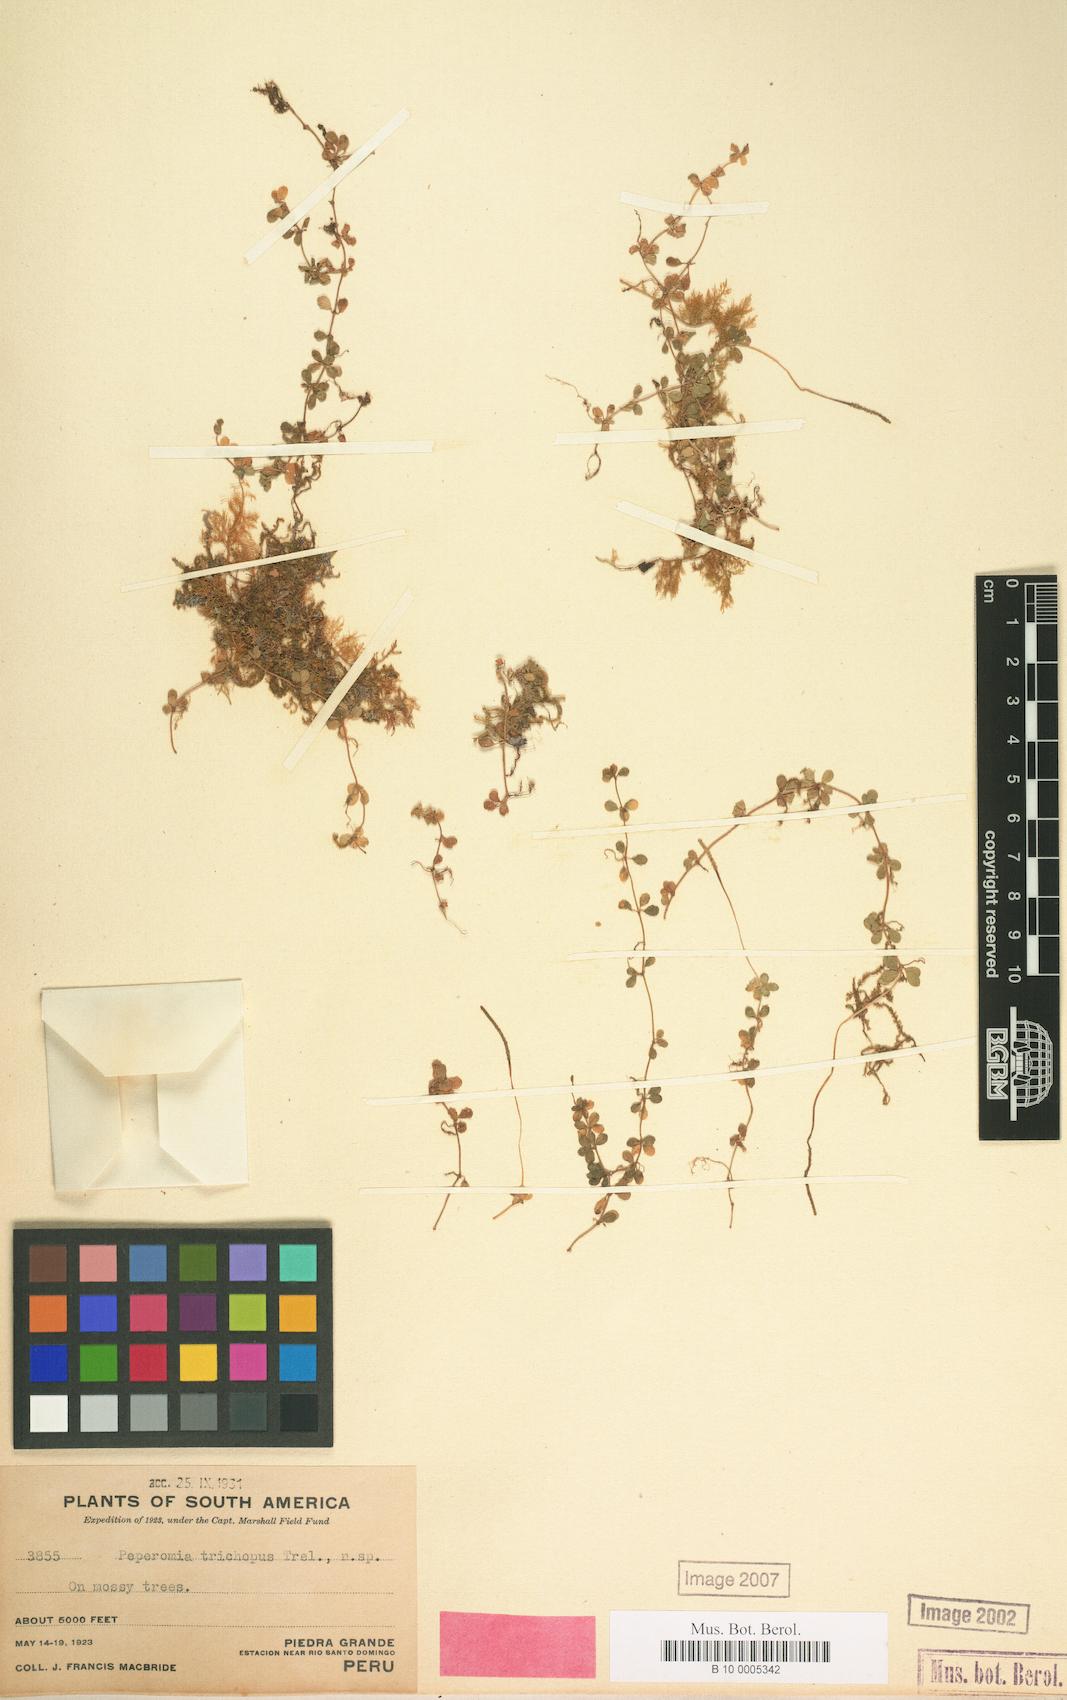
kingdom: Plantae
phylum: Tracheophyta
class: Magnoliopsida
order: Piperales
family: Piperaceae
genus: Peperomia
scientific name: Peperomia trichopus
